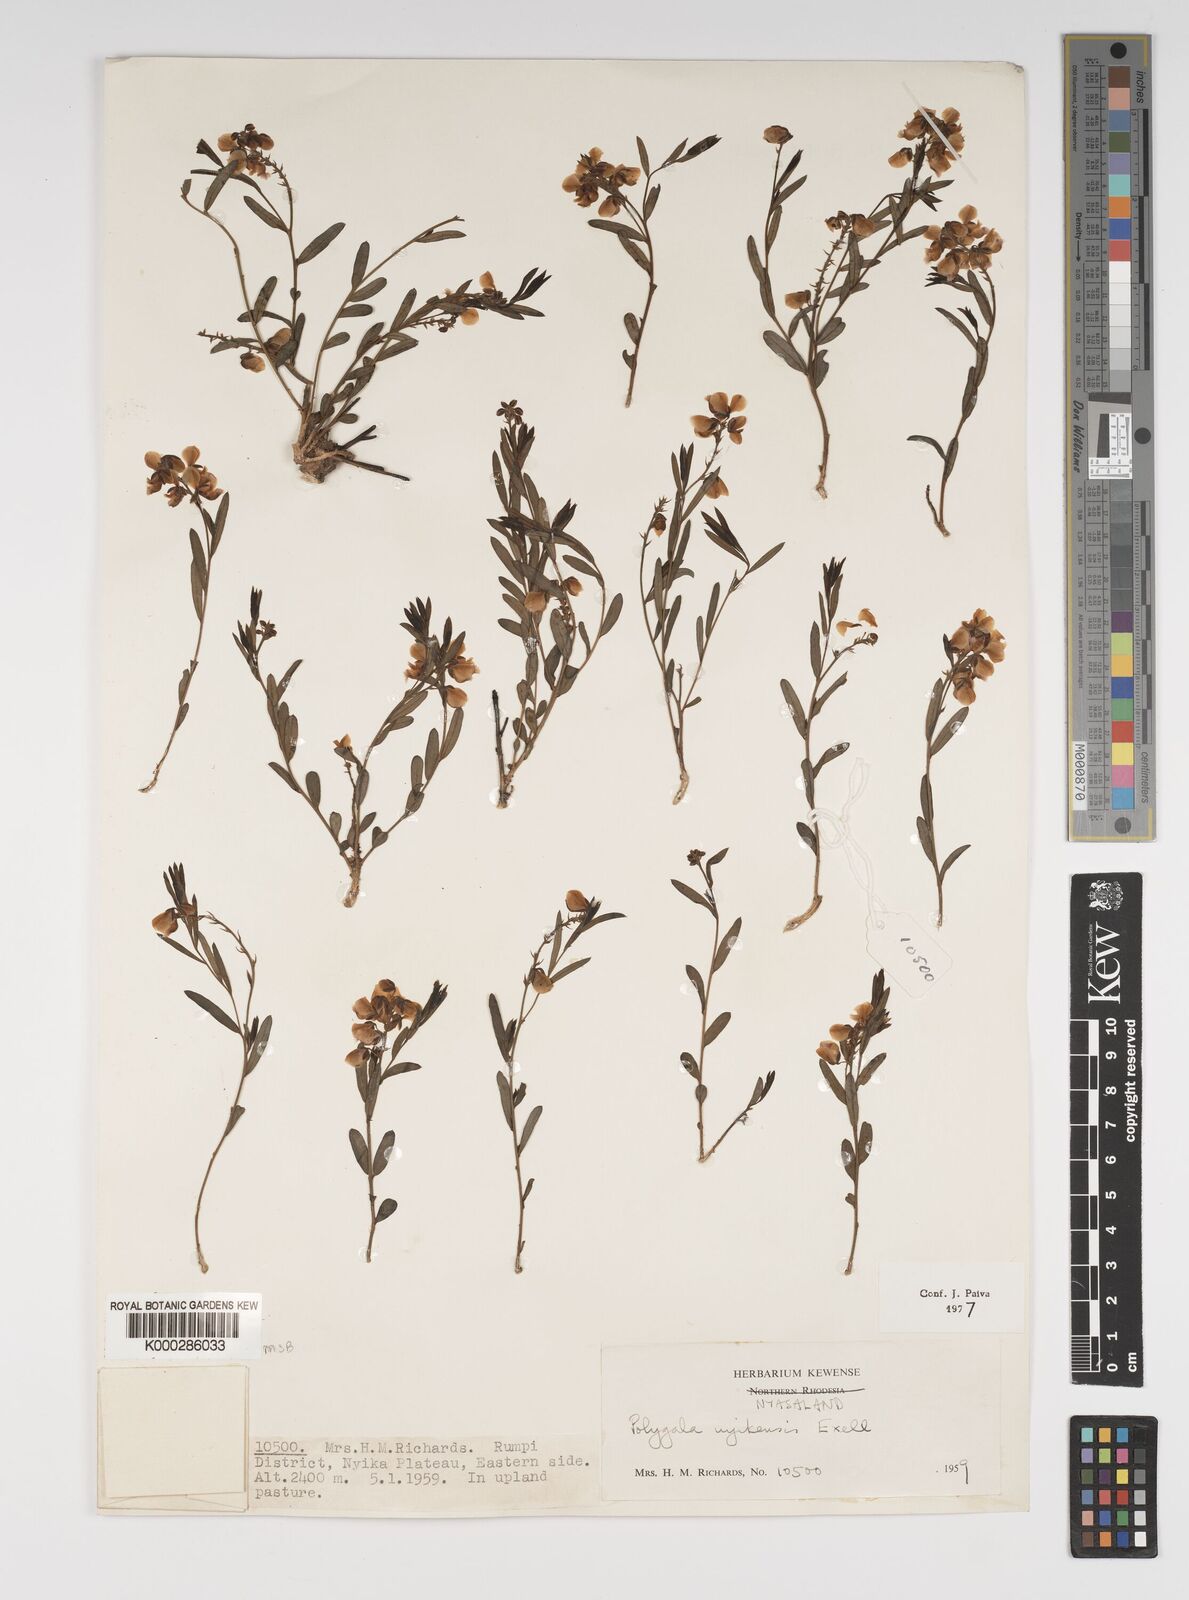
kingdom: Plantae
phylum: Tracheophyta
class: Magnoliopsida
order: Fabales
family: Polygalaceae
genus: Polygala
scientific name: Polygala nyikensis
